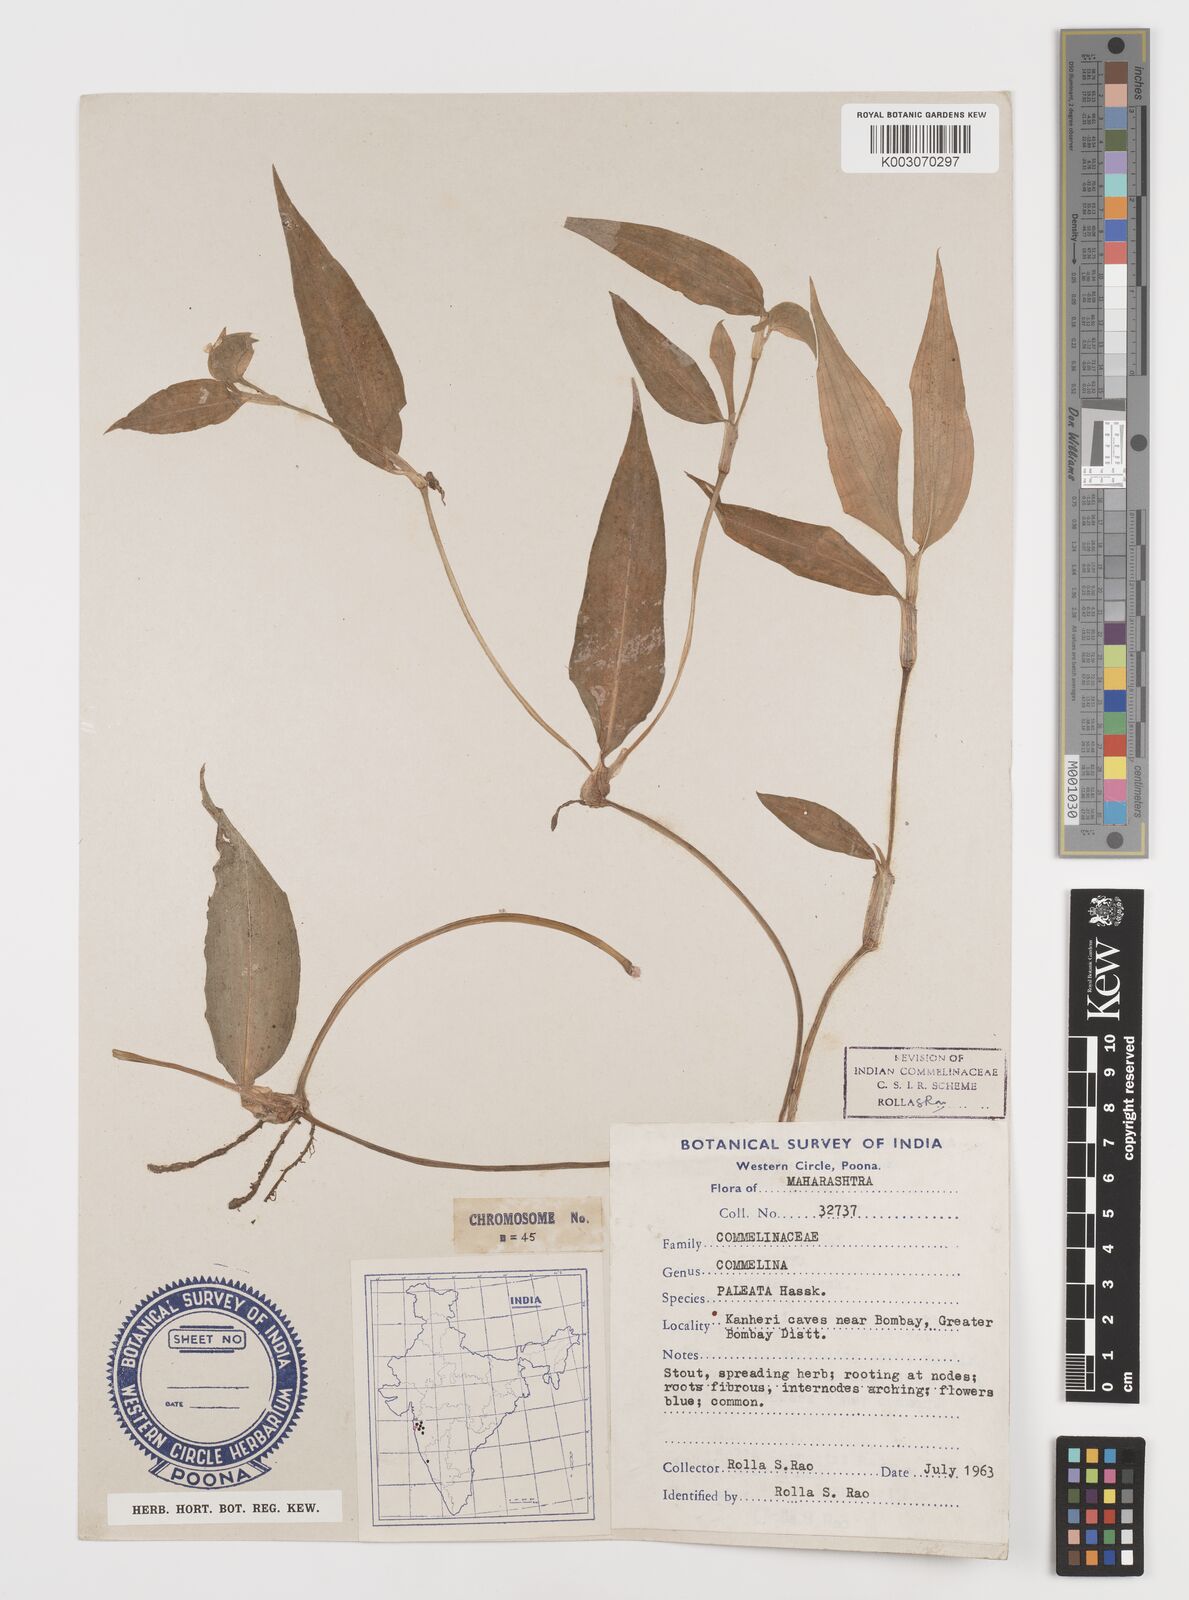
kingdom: Plantae
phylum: Tracheophyta
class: Liliopsida
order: Commelinales
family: Commelinaceae
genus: Commelina
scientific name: Commelina paleata
